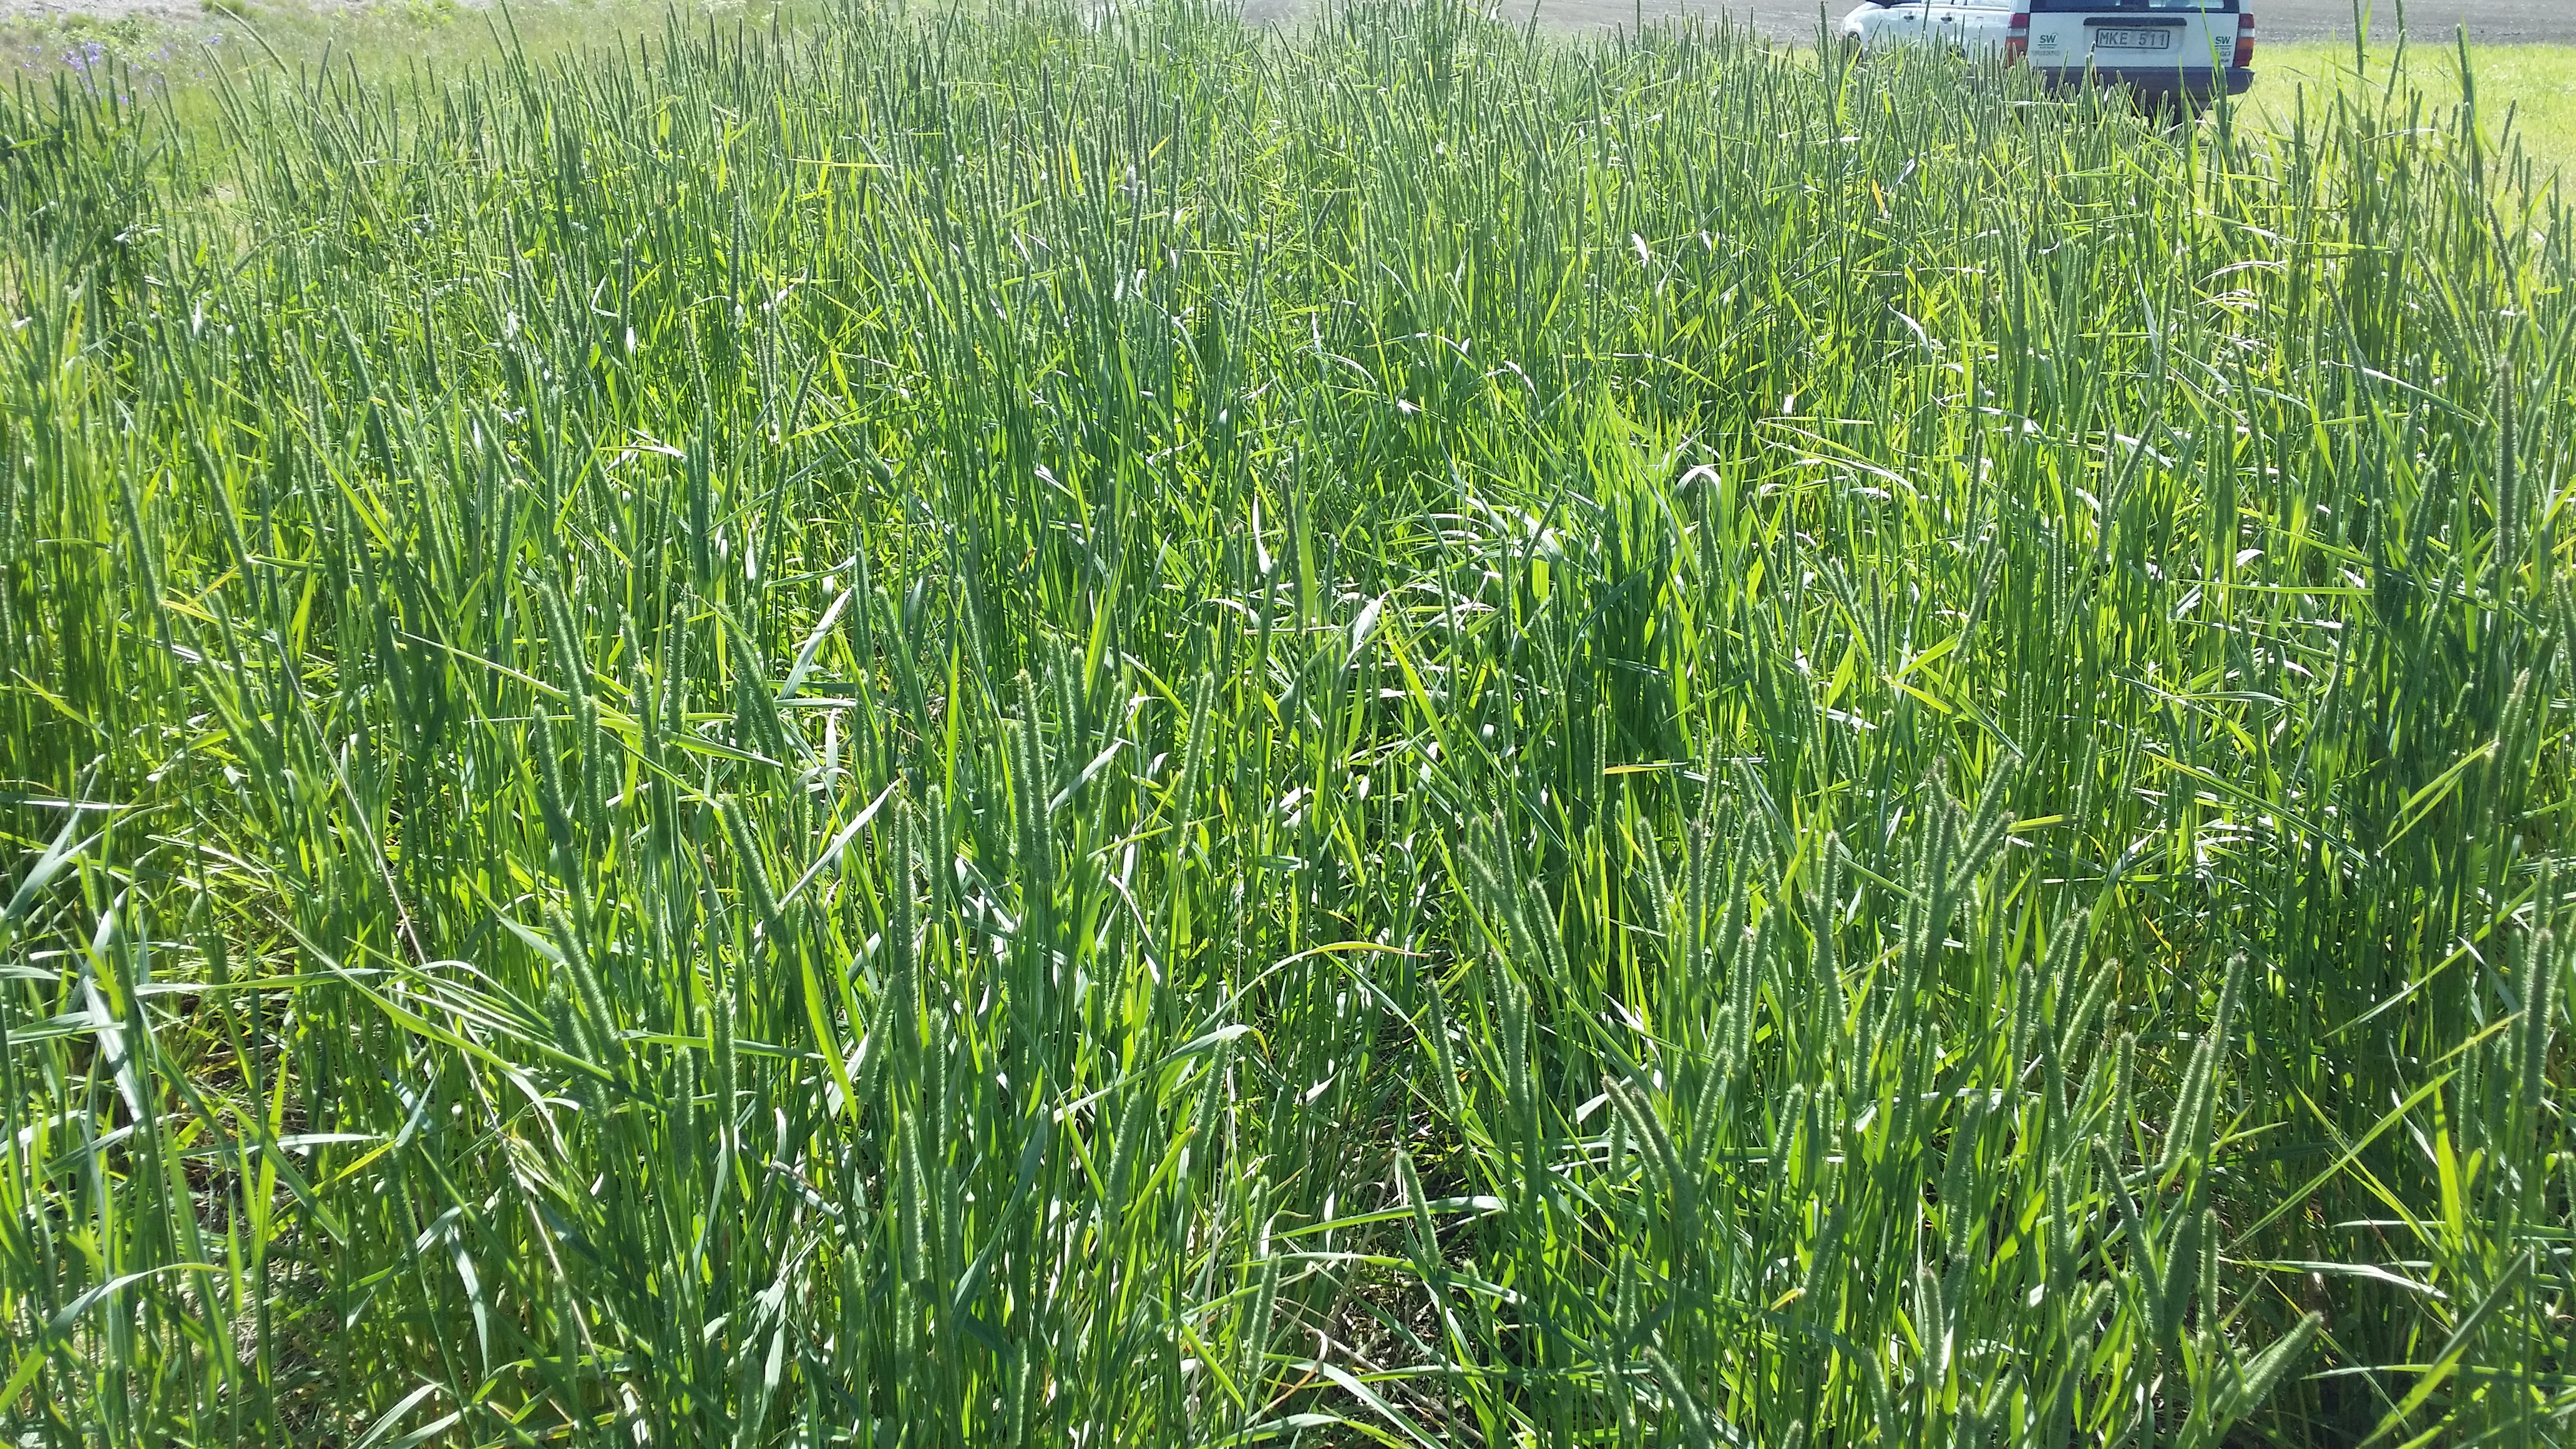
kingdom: Plantae
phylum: Tracheophyta
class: Liliopsida
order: Poales
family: Poaceae
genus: Phleum
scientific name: Phleum pratense
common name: Timothy grass
